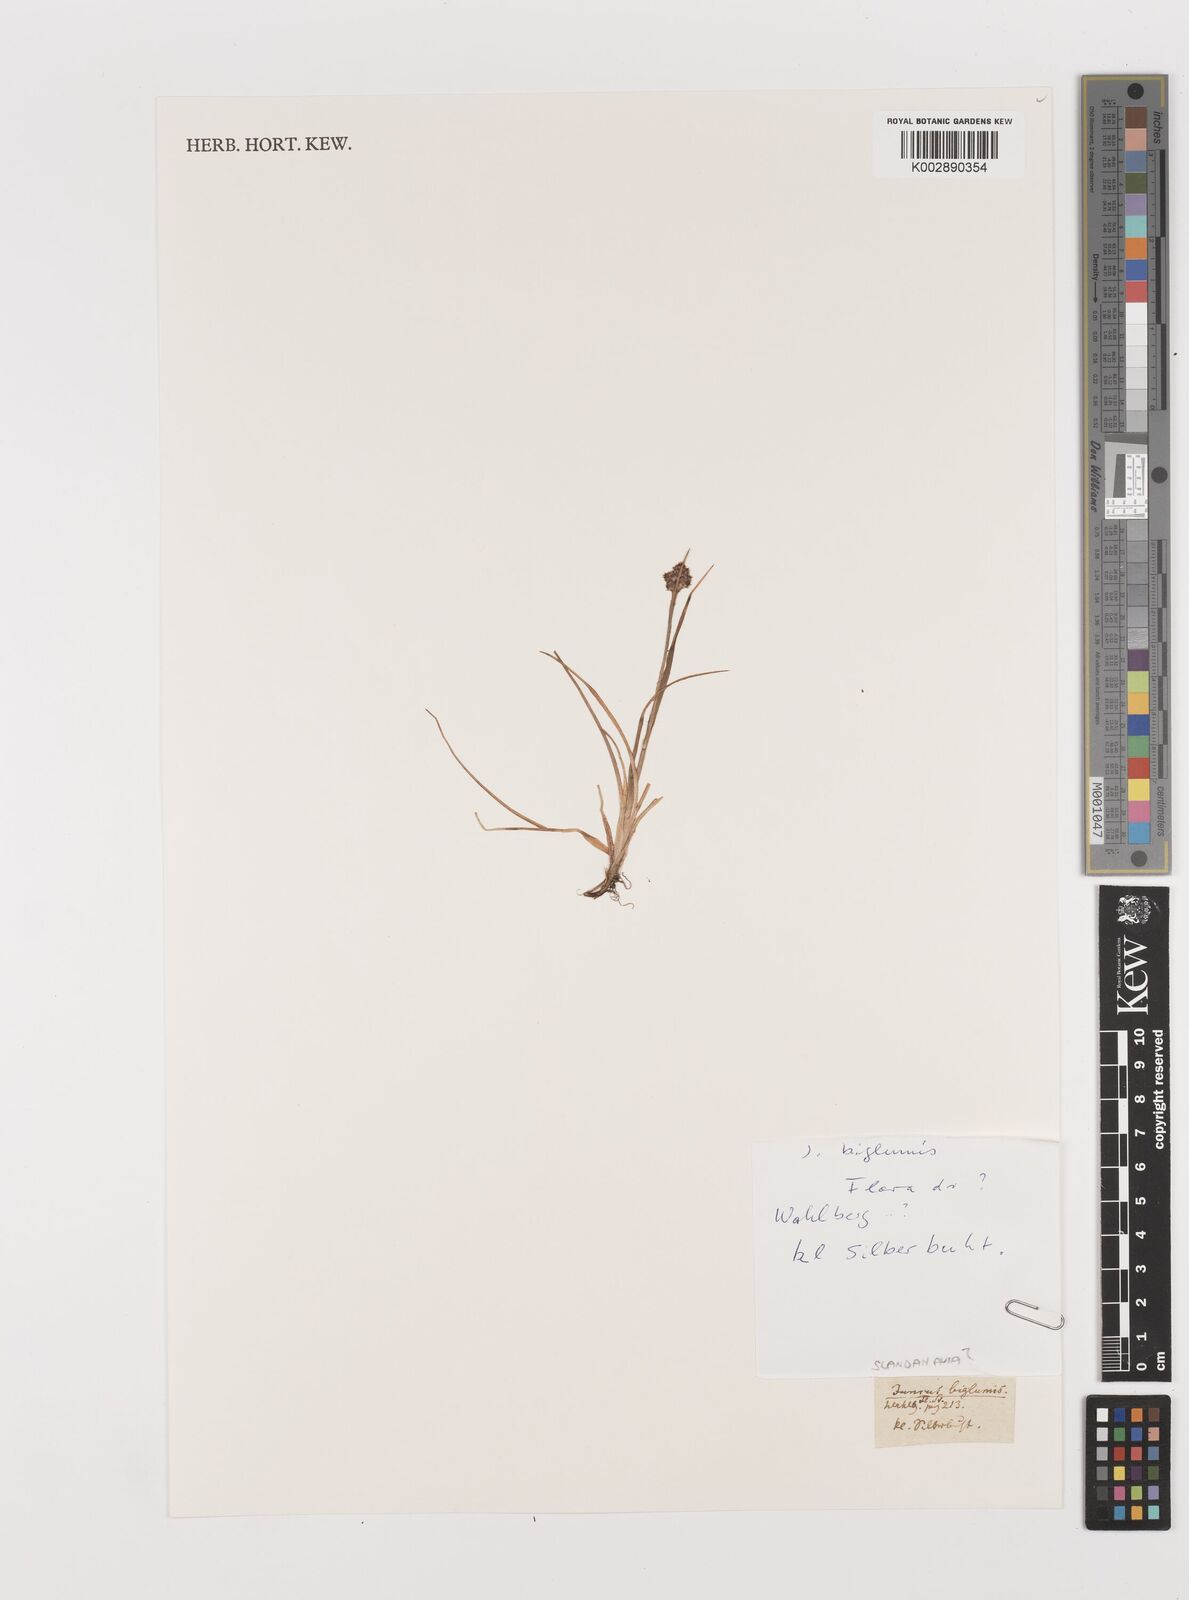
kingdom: Plantae
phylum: Tracheophyta
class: Liliopsida
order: Poales
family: Juncaceae
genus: Juncus
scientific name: Juncus biglumis
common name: Two-flowered rush
